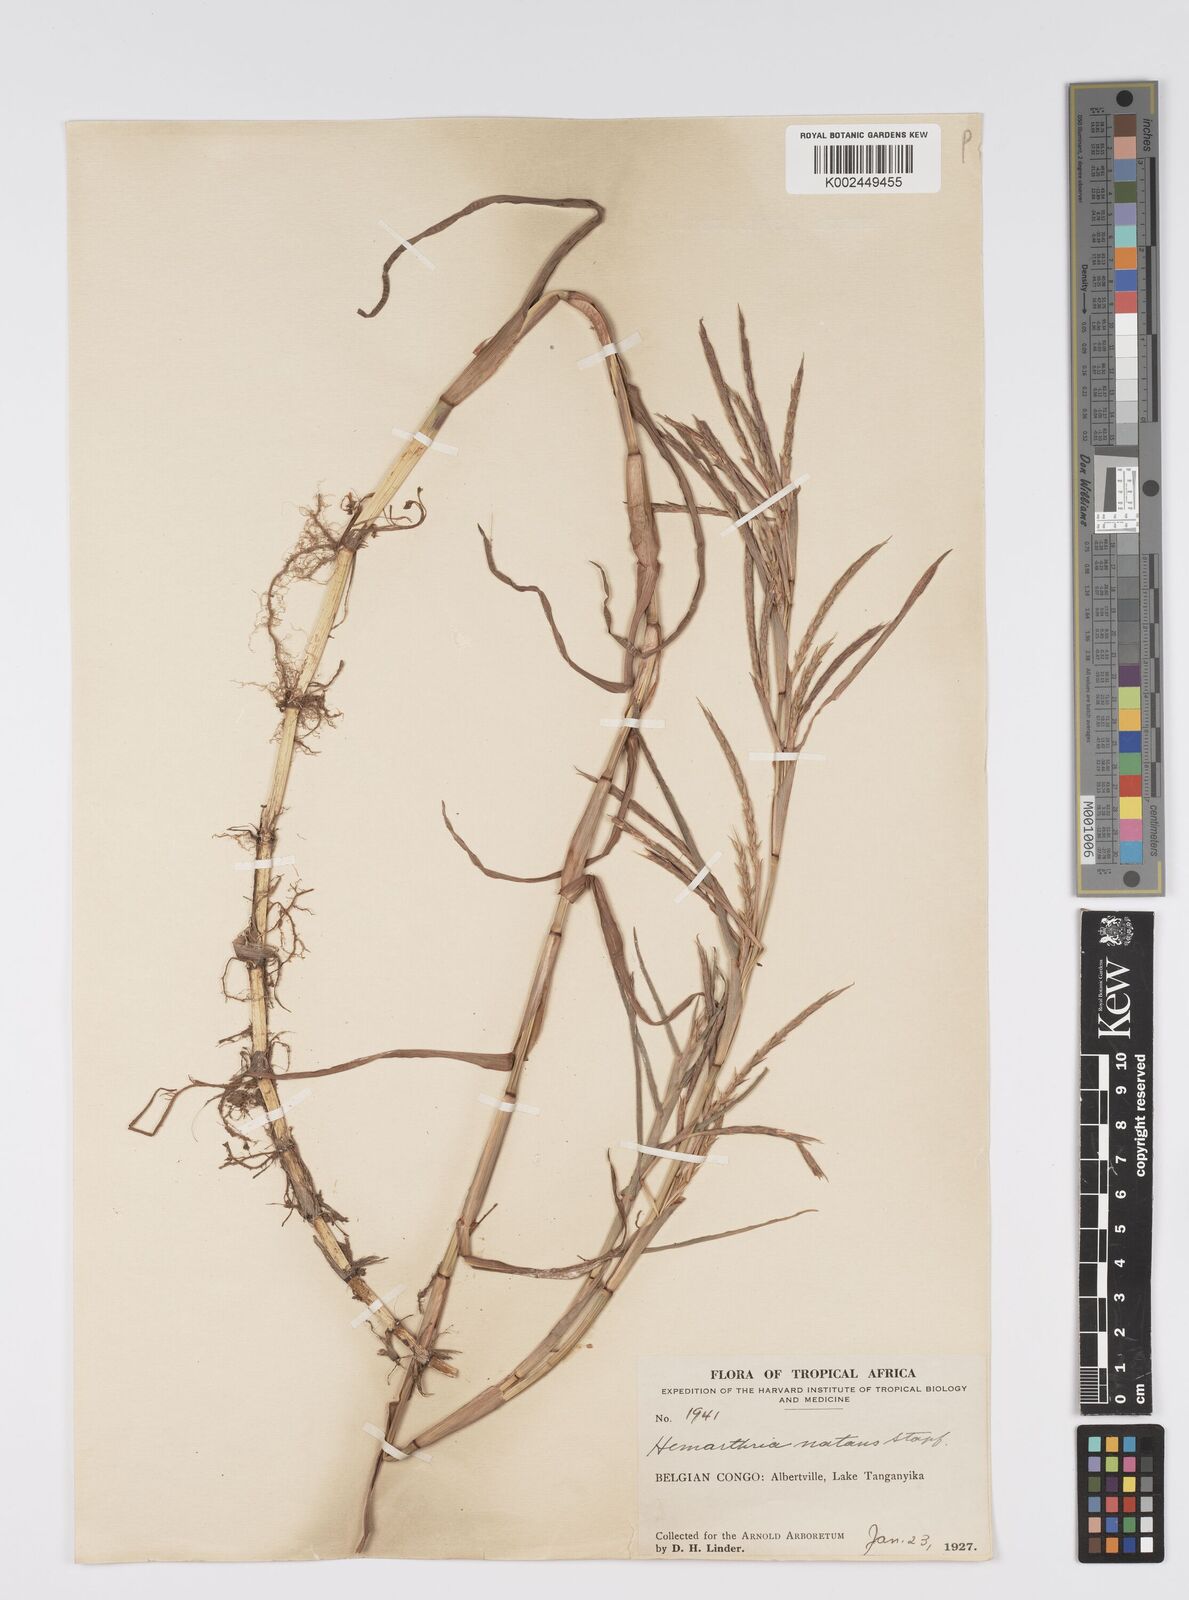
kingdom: Plantae
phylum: Tracheophyta
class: Liliopsida
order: Poales
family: Poaceae
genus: Hemarthria
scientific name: Hemarthria natans
